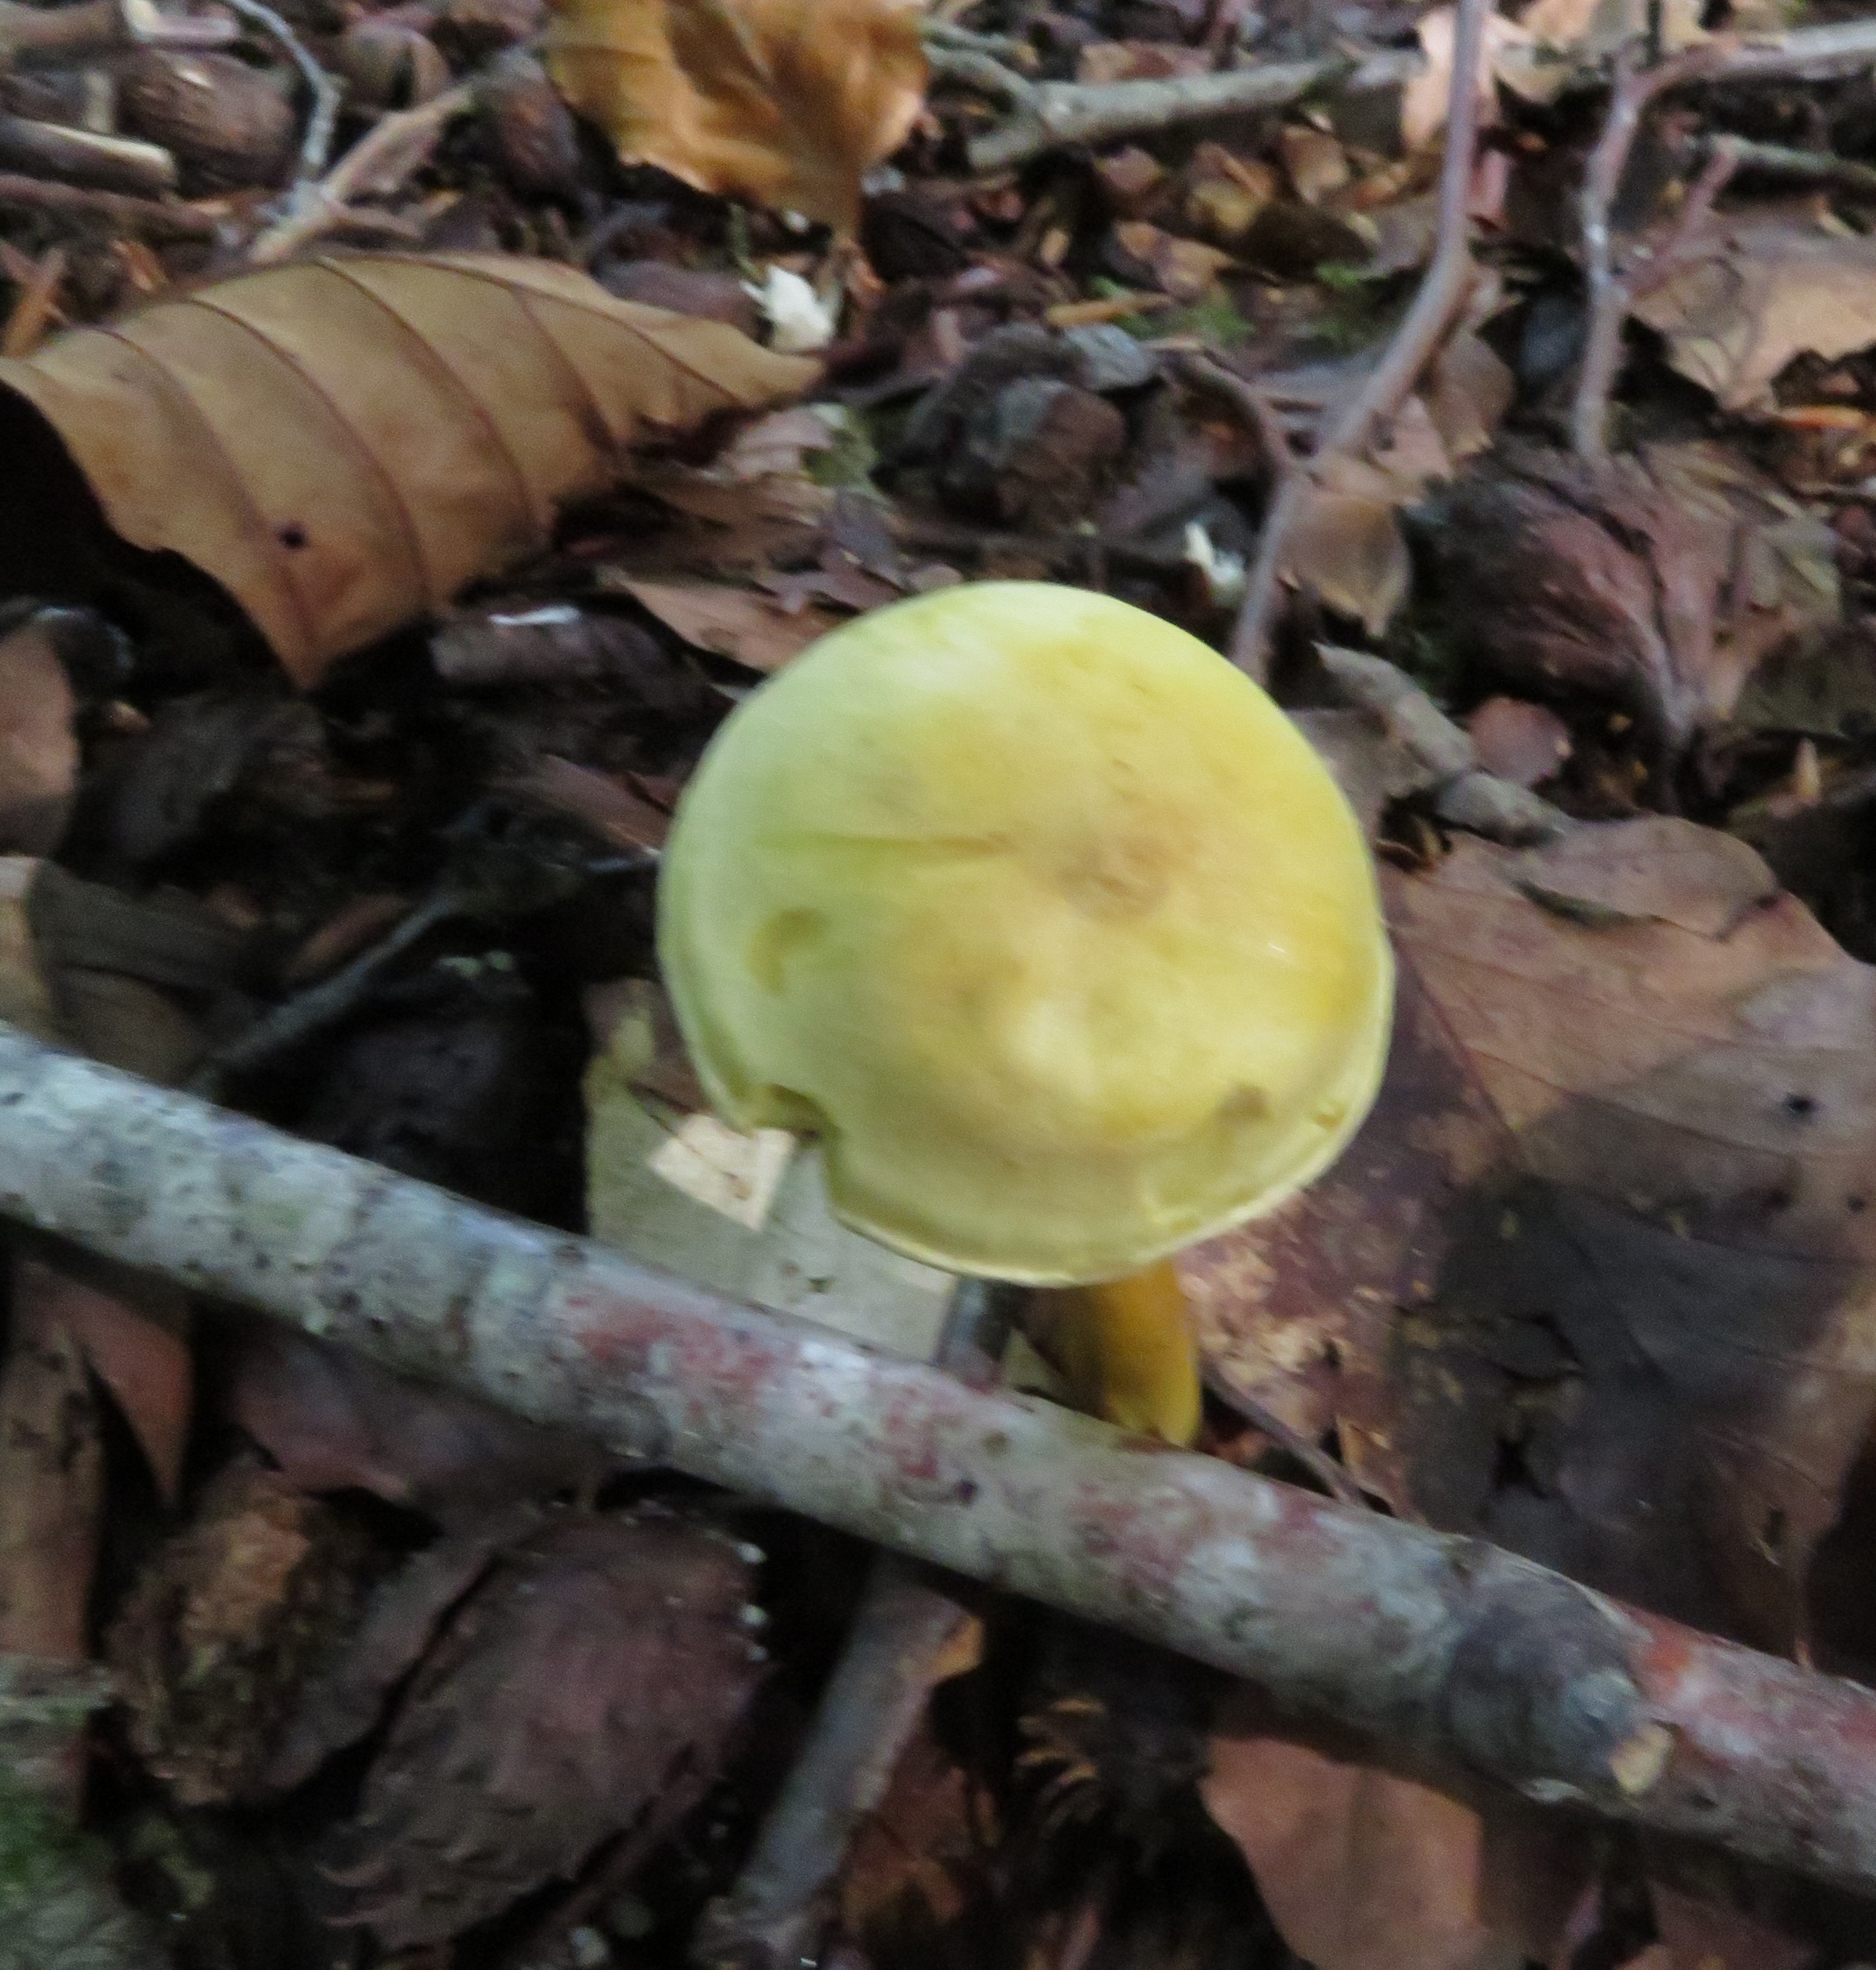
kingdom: Fungi
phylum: Basidiomycota
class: Agaricomycetes
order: Agaricales
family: Tricholomataceae
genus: Tricholoma
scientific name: Tricholoma sulphureum
